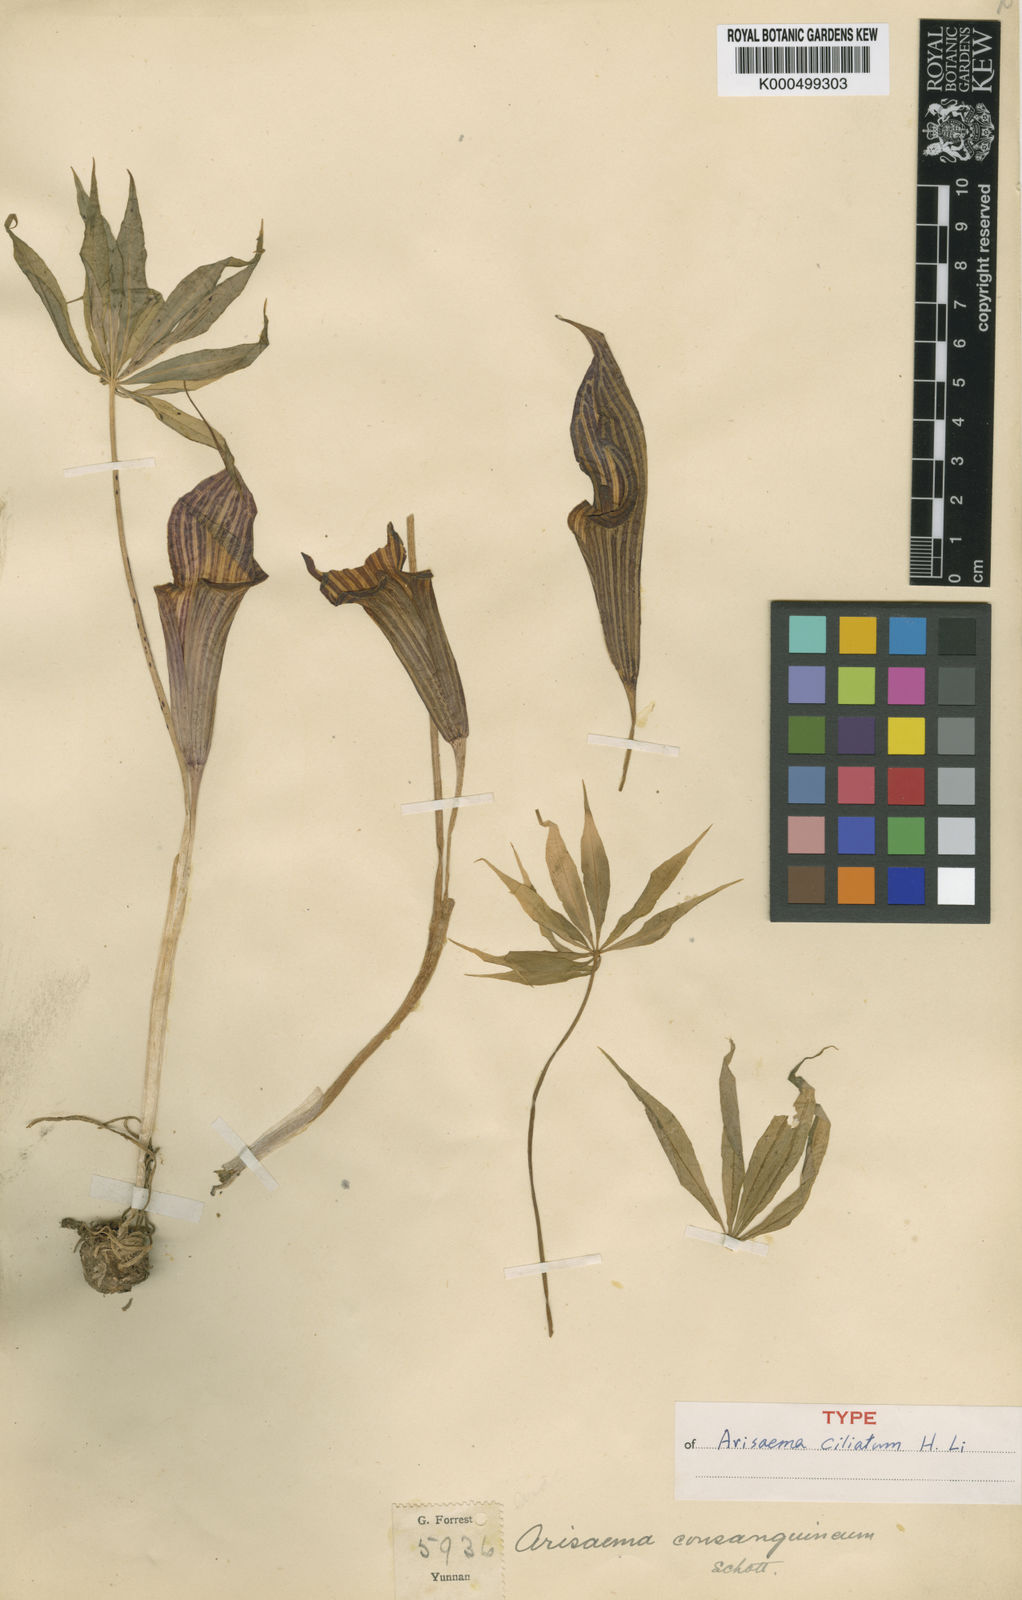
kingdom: Plantae
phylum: Tracheophyta
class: Liliopsida
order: Alismatales
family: Araceae
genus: Arisaema
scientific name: Arisaema ciliatum
